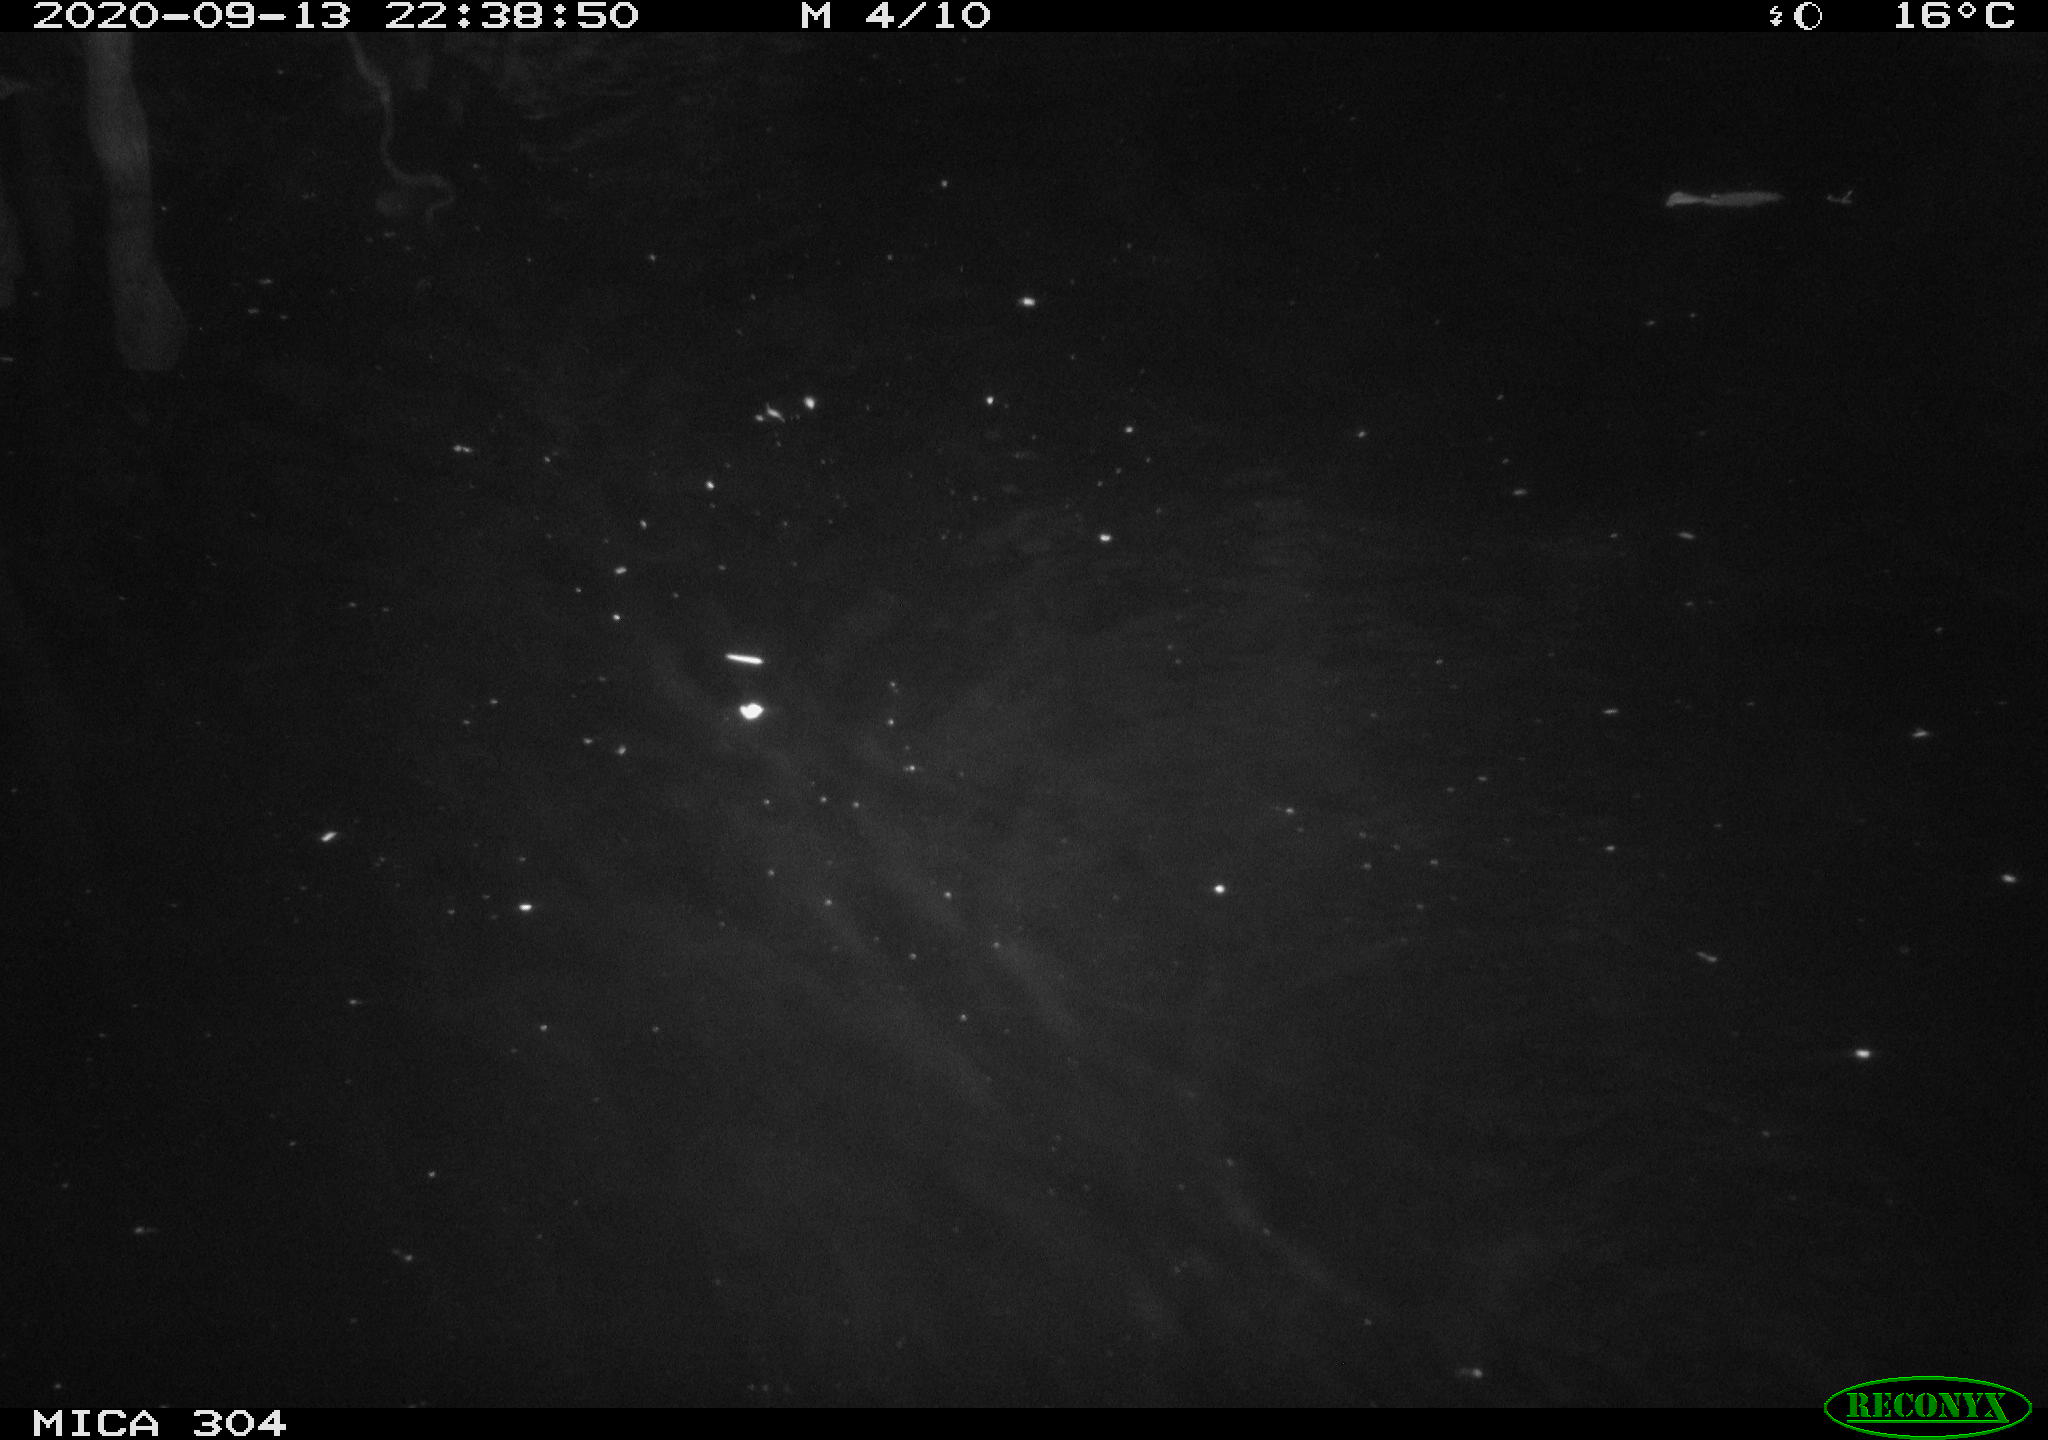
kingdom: Animalia
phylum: Chordata
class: Mammalia
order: Rodentia
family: Cricetidae
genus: Ondatra
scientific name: Ondatra zibethicus
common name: Muskrat
